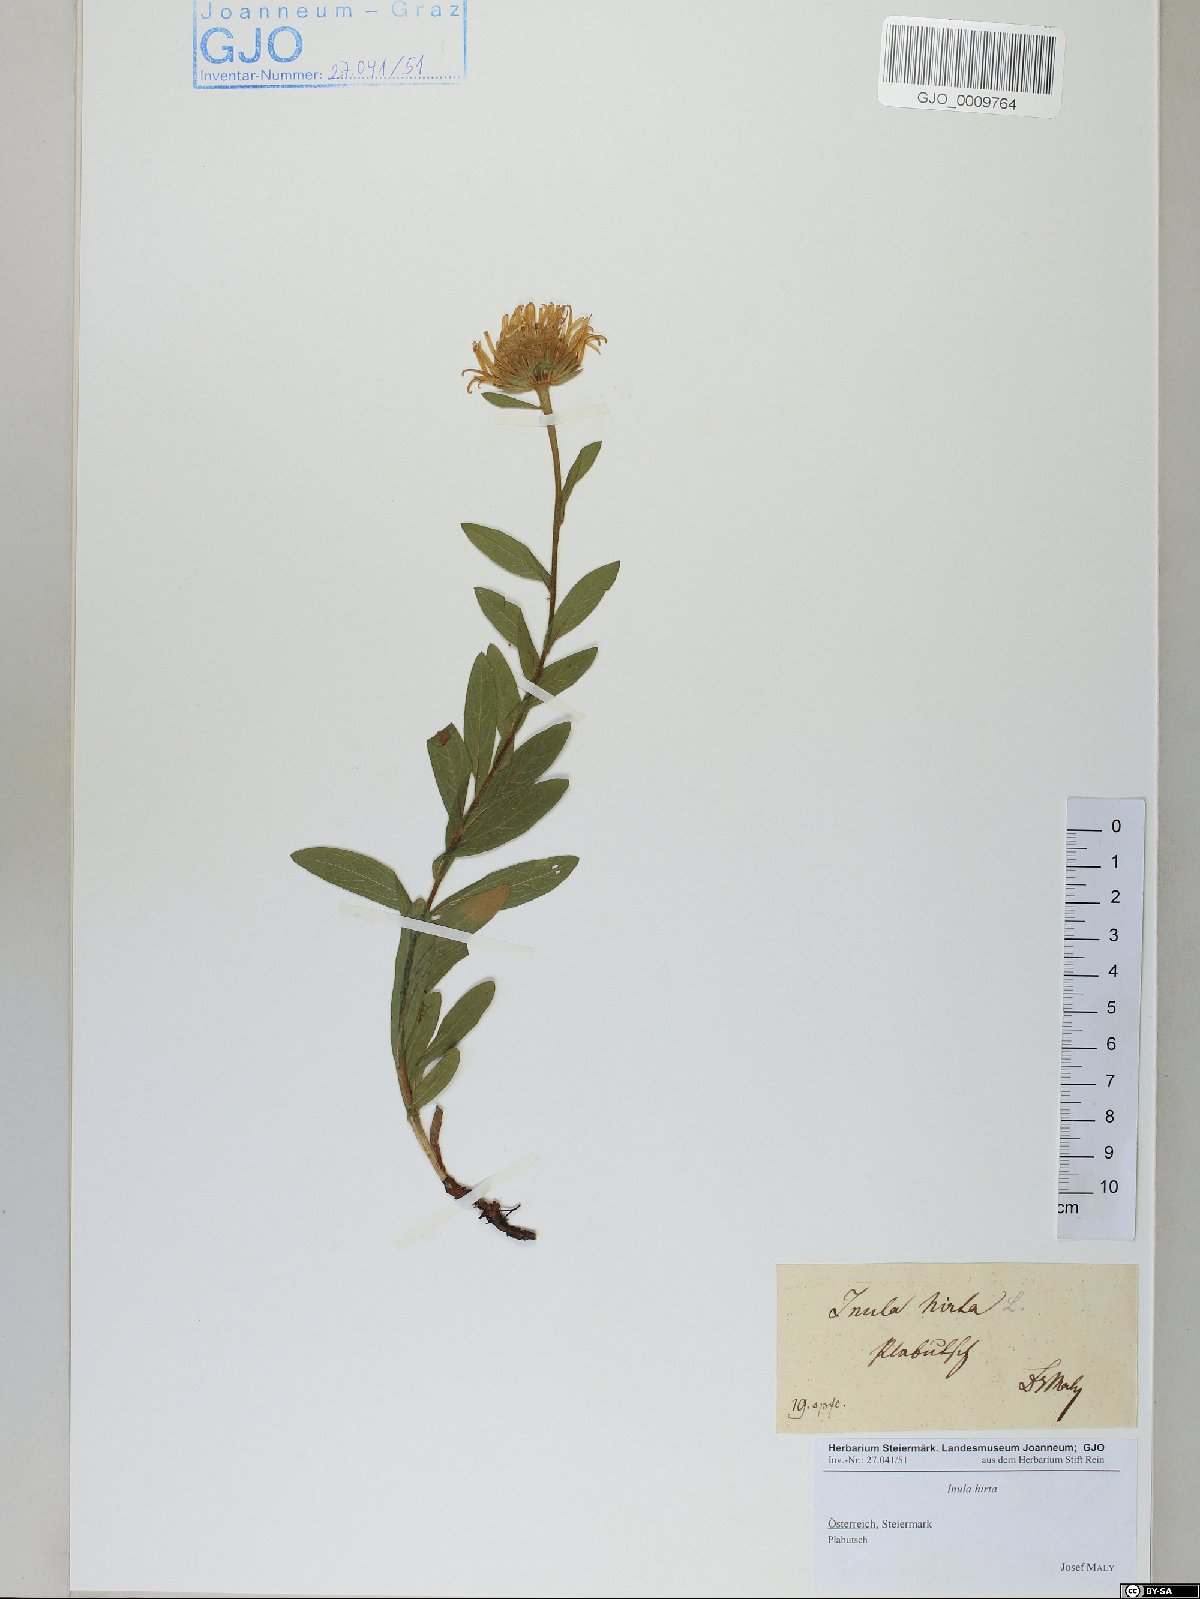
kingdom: Plantae
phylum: Tracheophyta
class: Magnoliopsida
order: Asterales
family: Asteraceae
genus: Pentanema
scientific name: Pentanema hirtum
